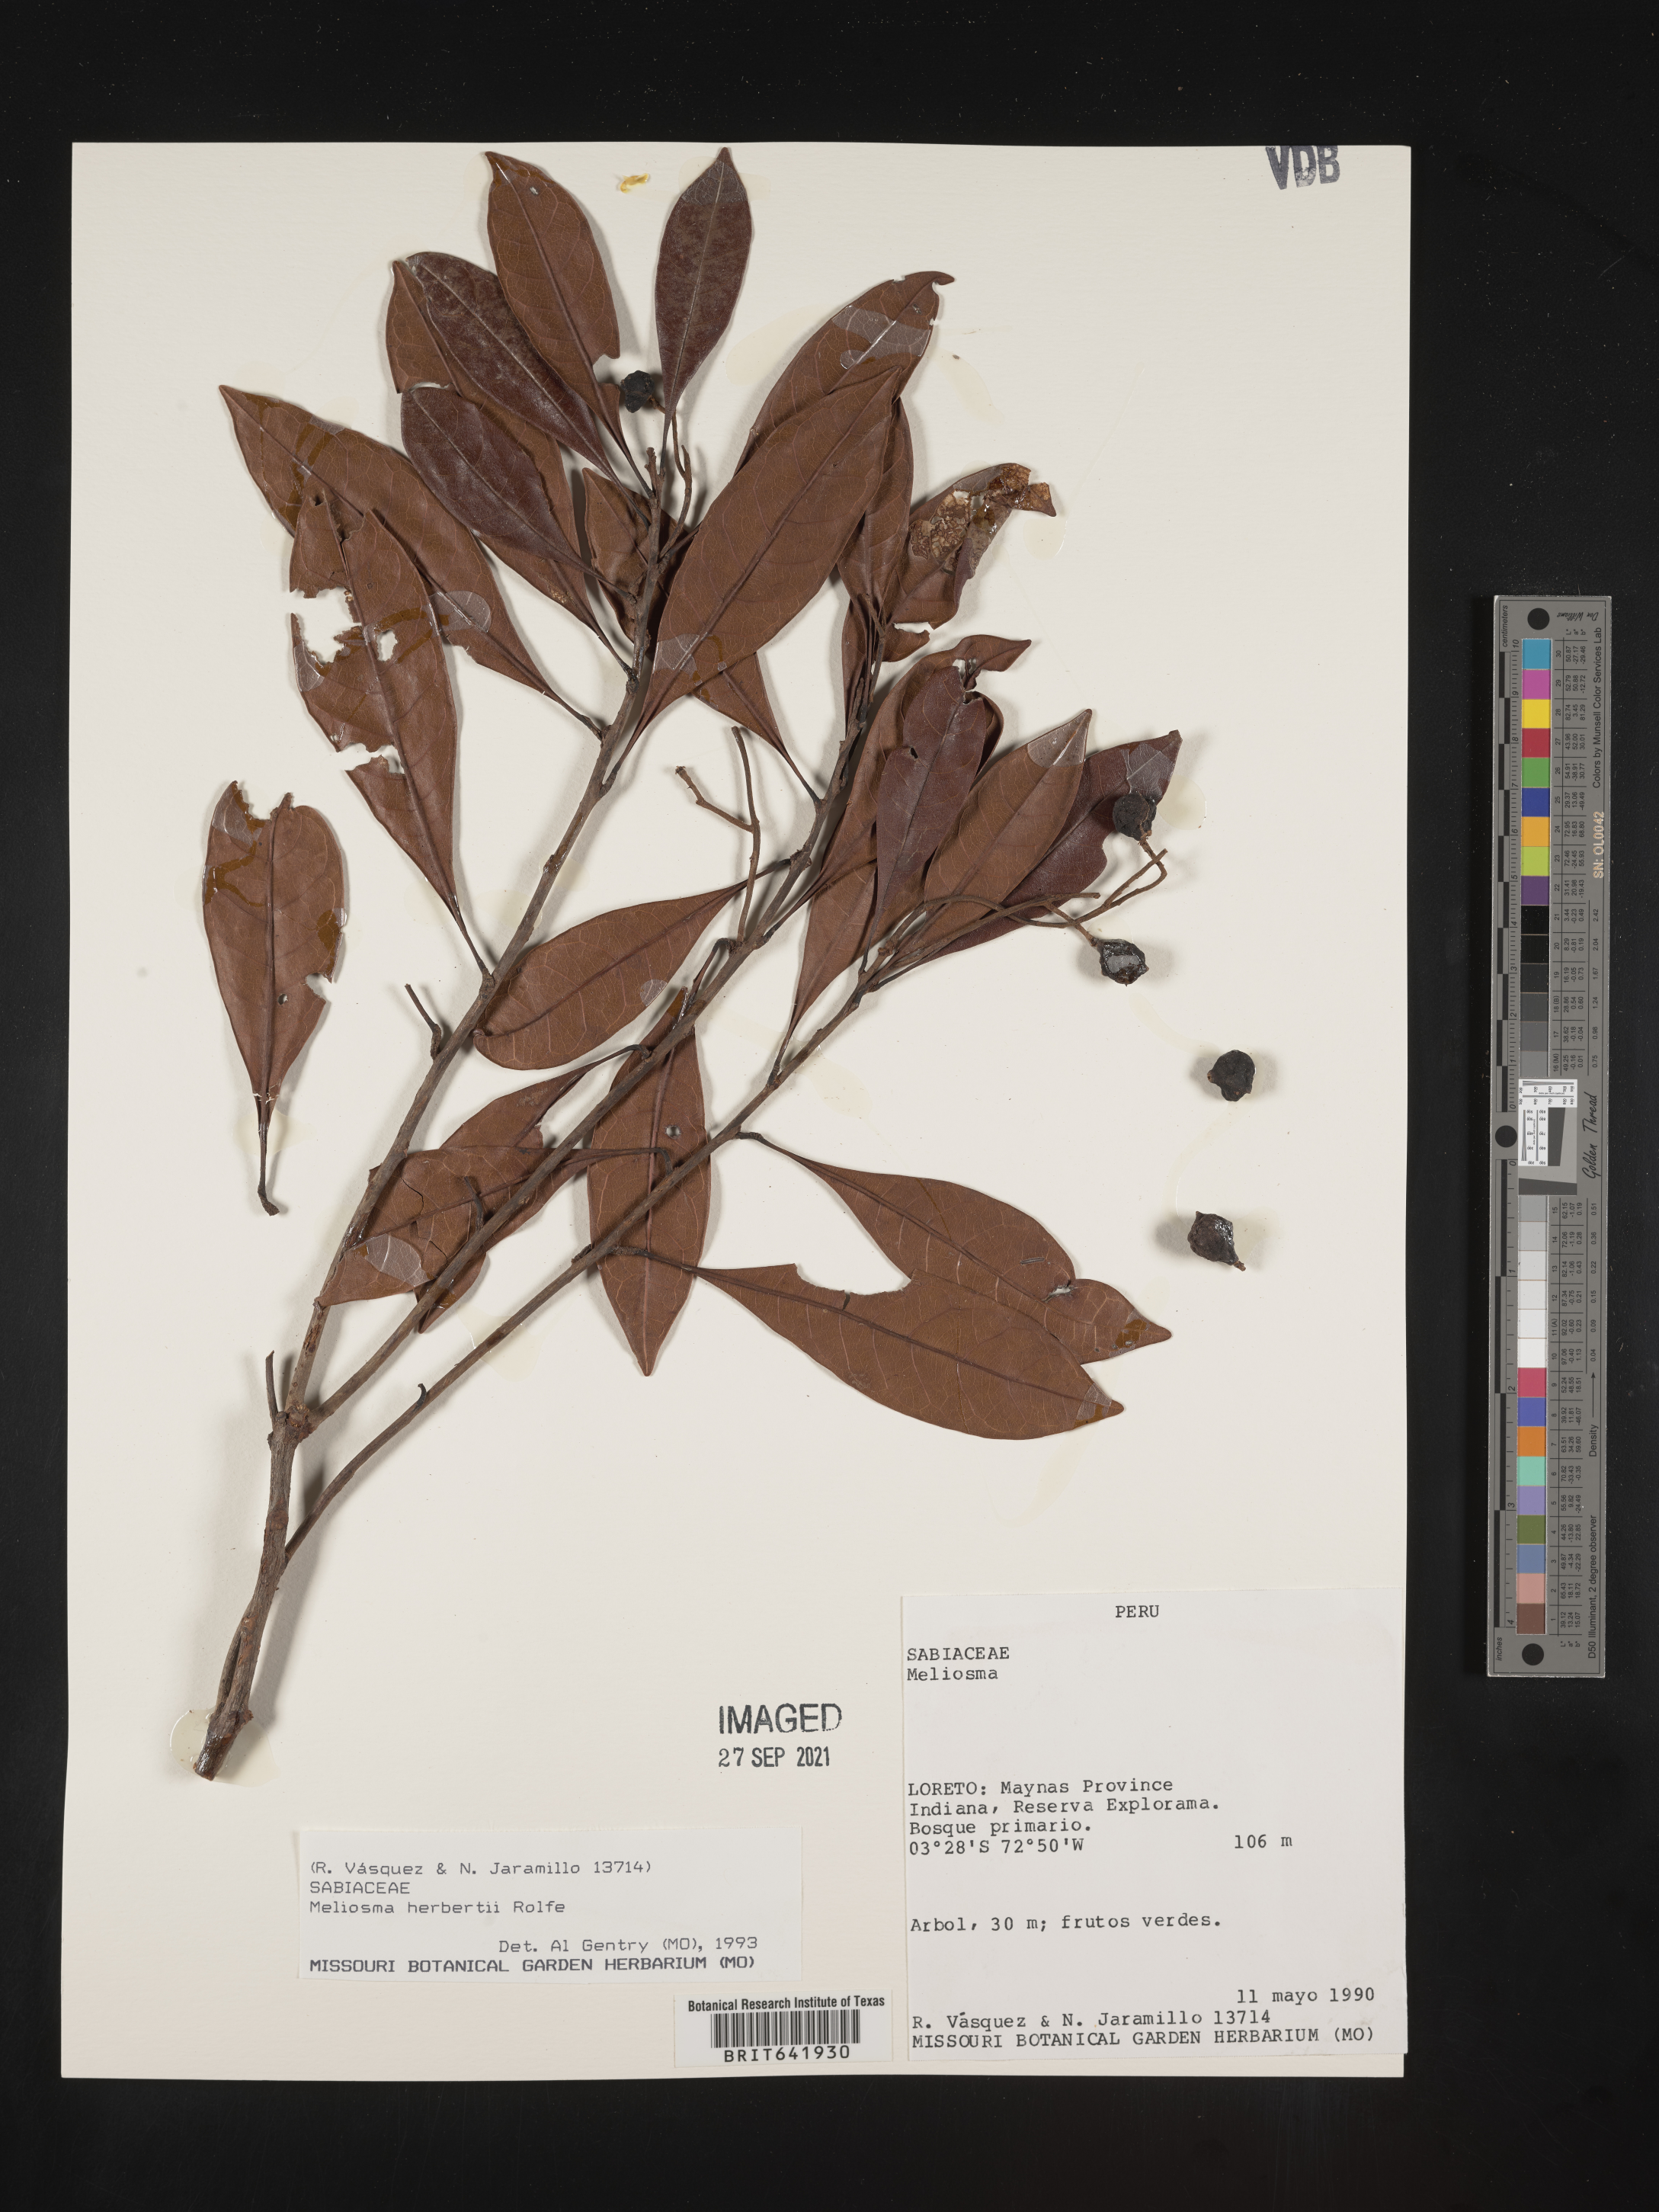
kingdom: Plantae
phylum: Tracheophyta
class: Magnoliopsida
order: Proteales
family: Sabiaceae
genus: Meliosma
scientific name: Meliosma
